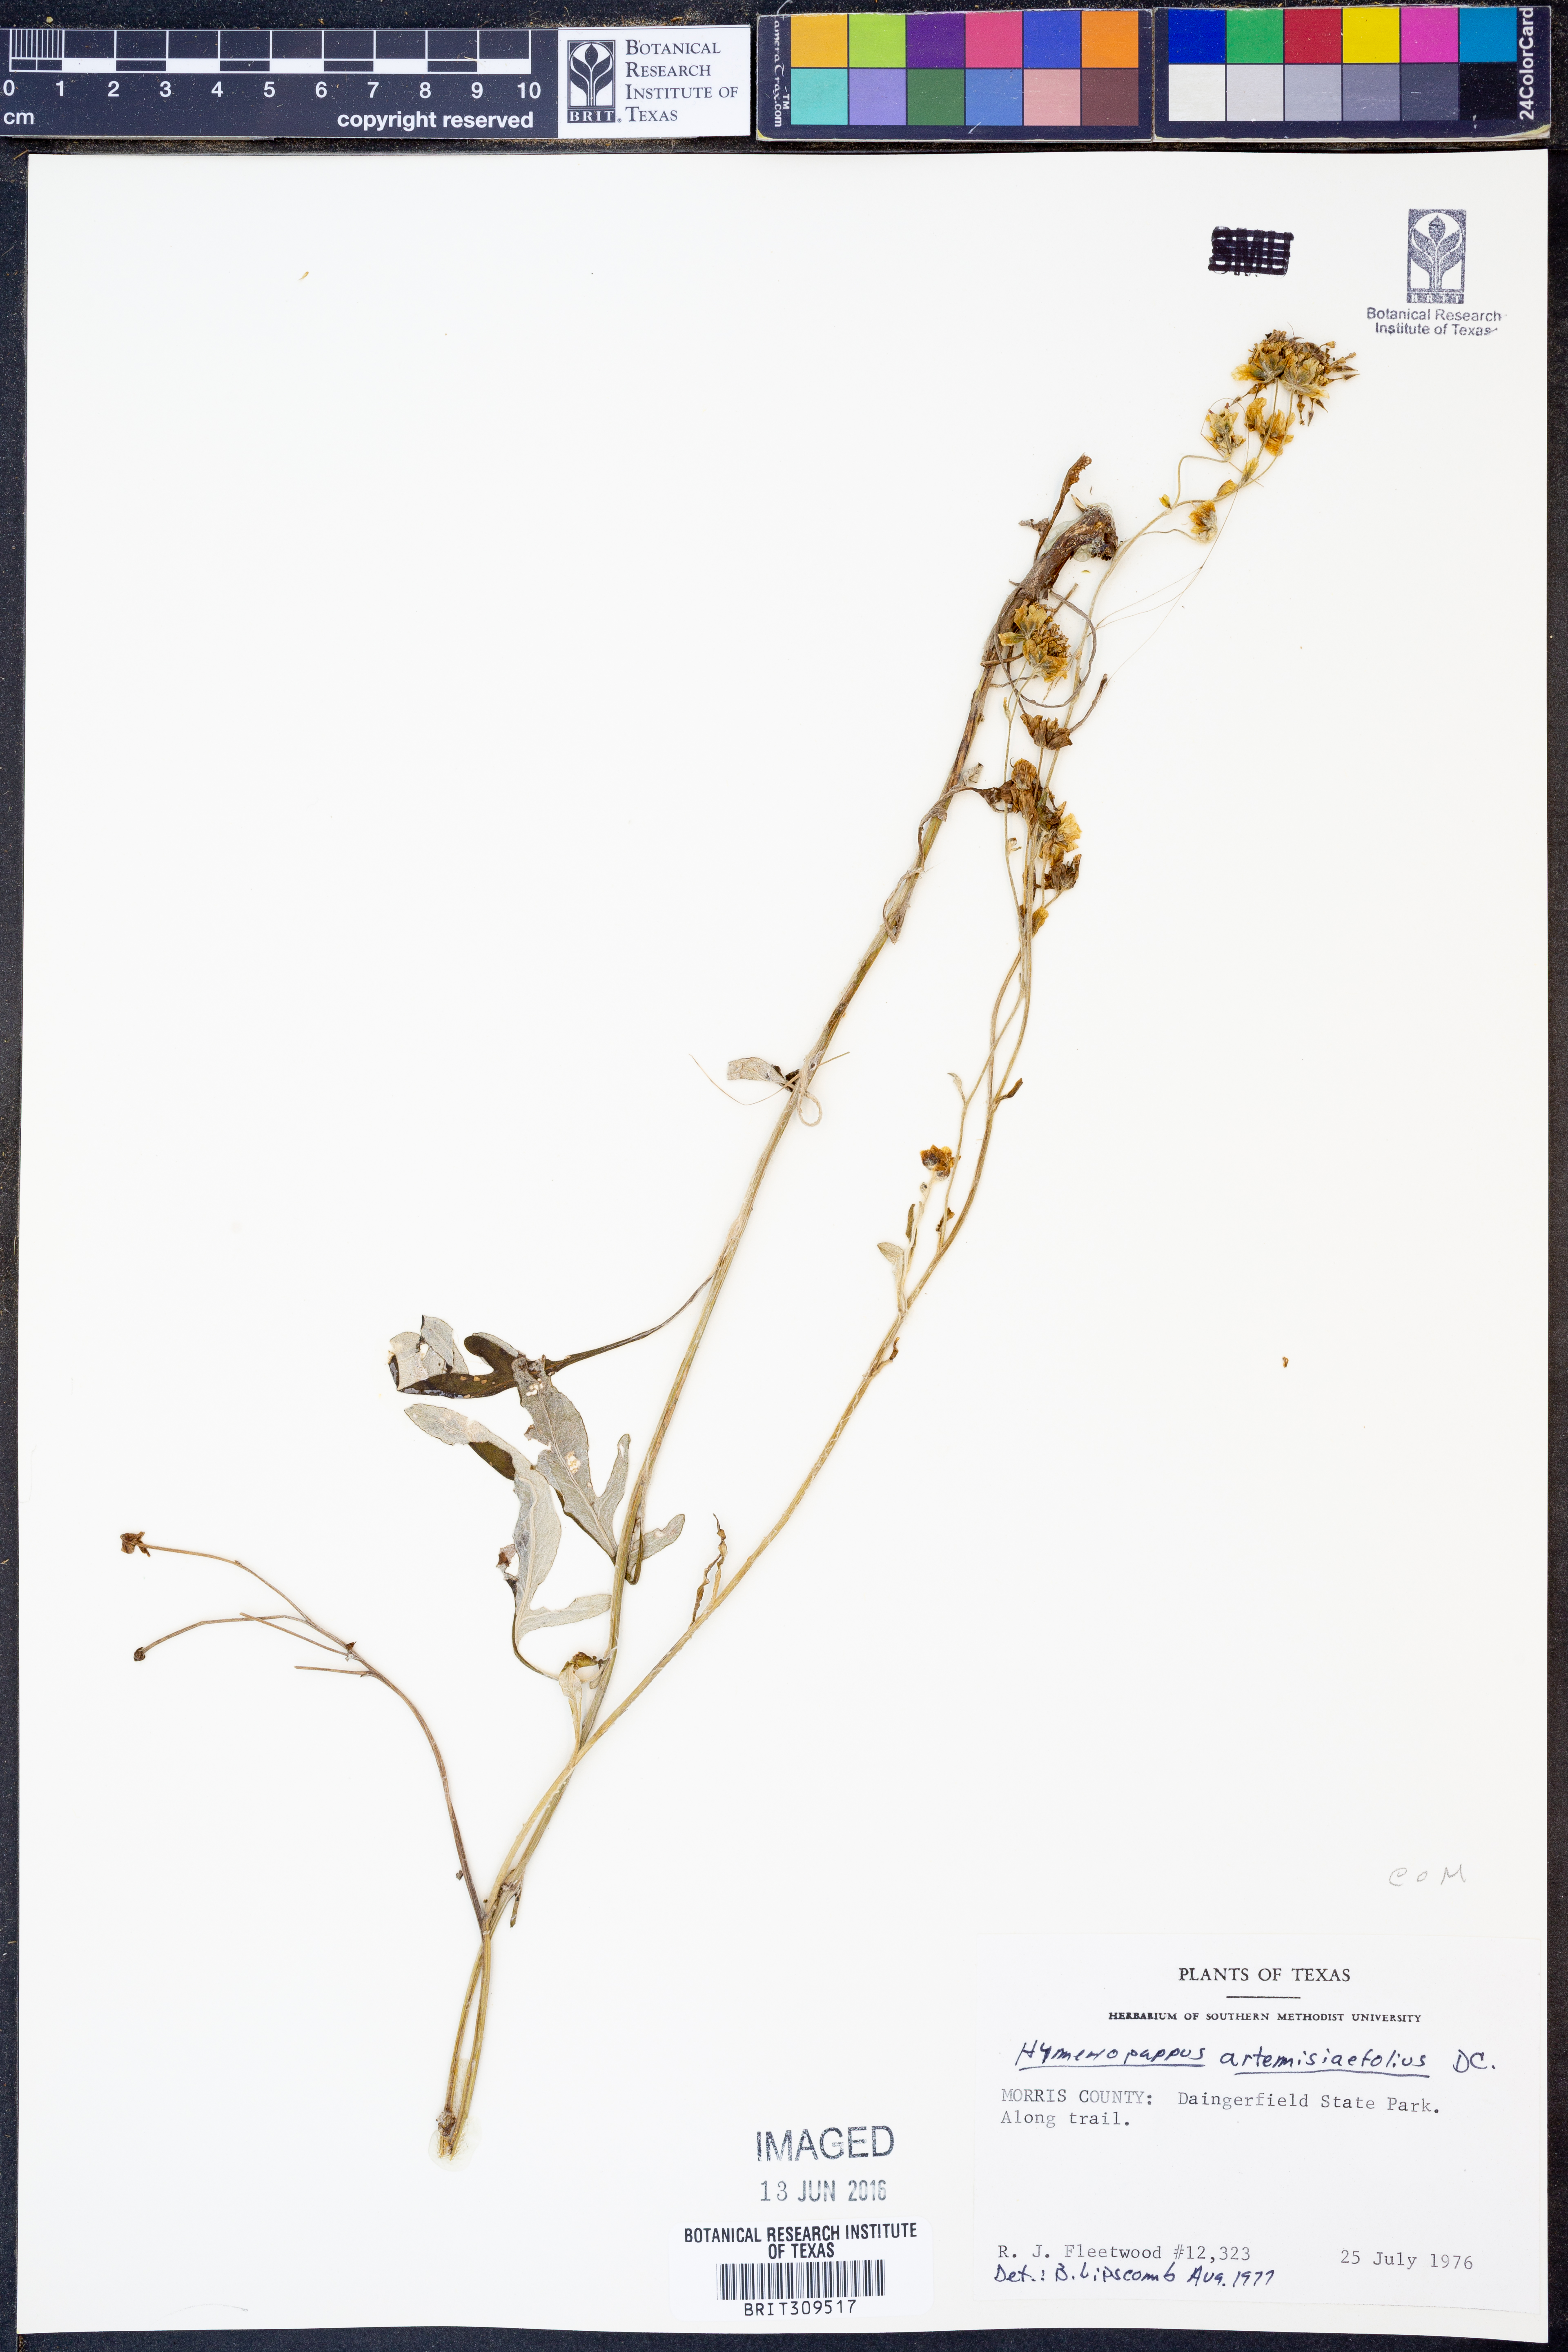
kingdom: Plantae
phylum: Tracheophyta
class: Magnoliopsida
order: Asterales
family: Asteraceae
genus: Hymenopappus
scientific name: Hymenopappus artemisiifolius
